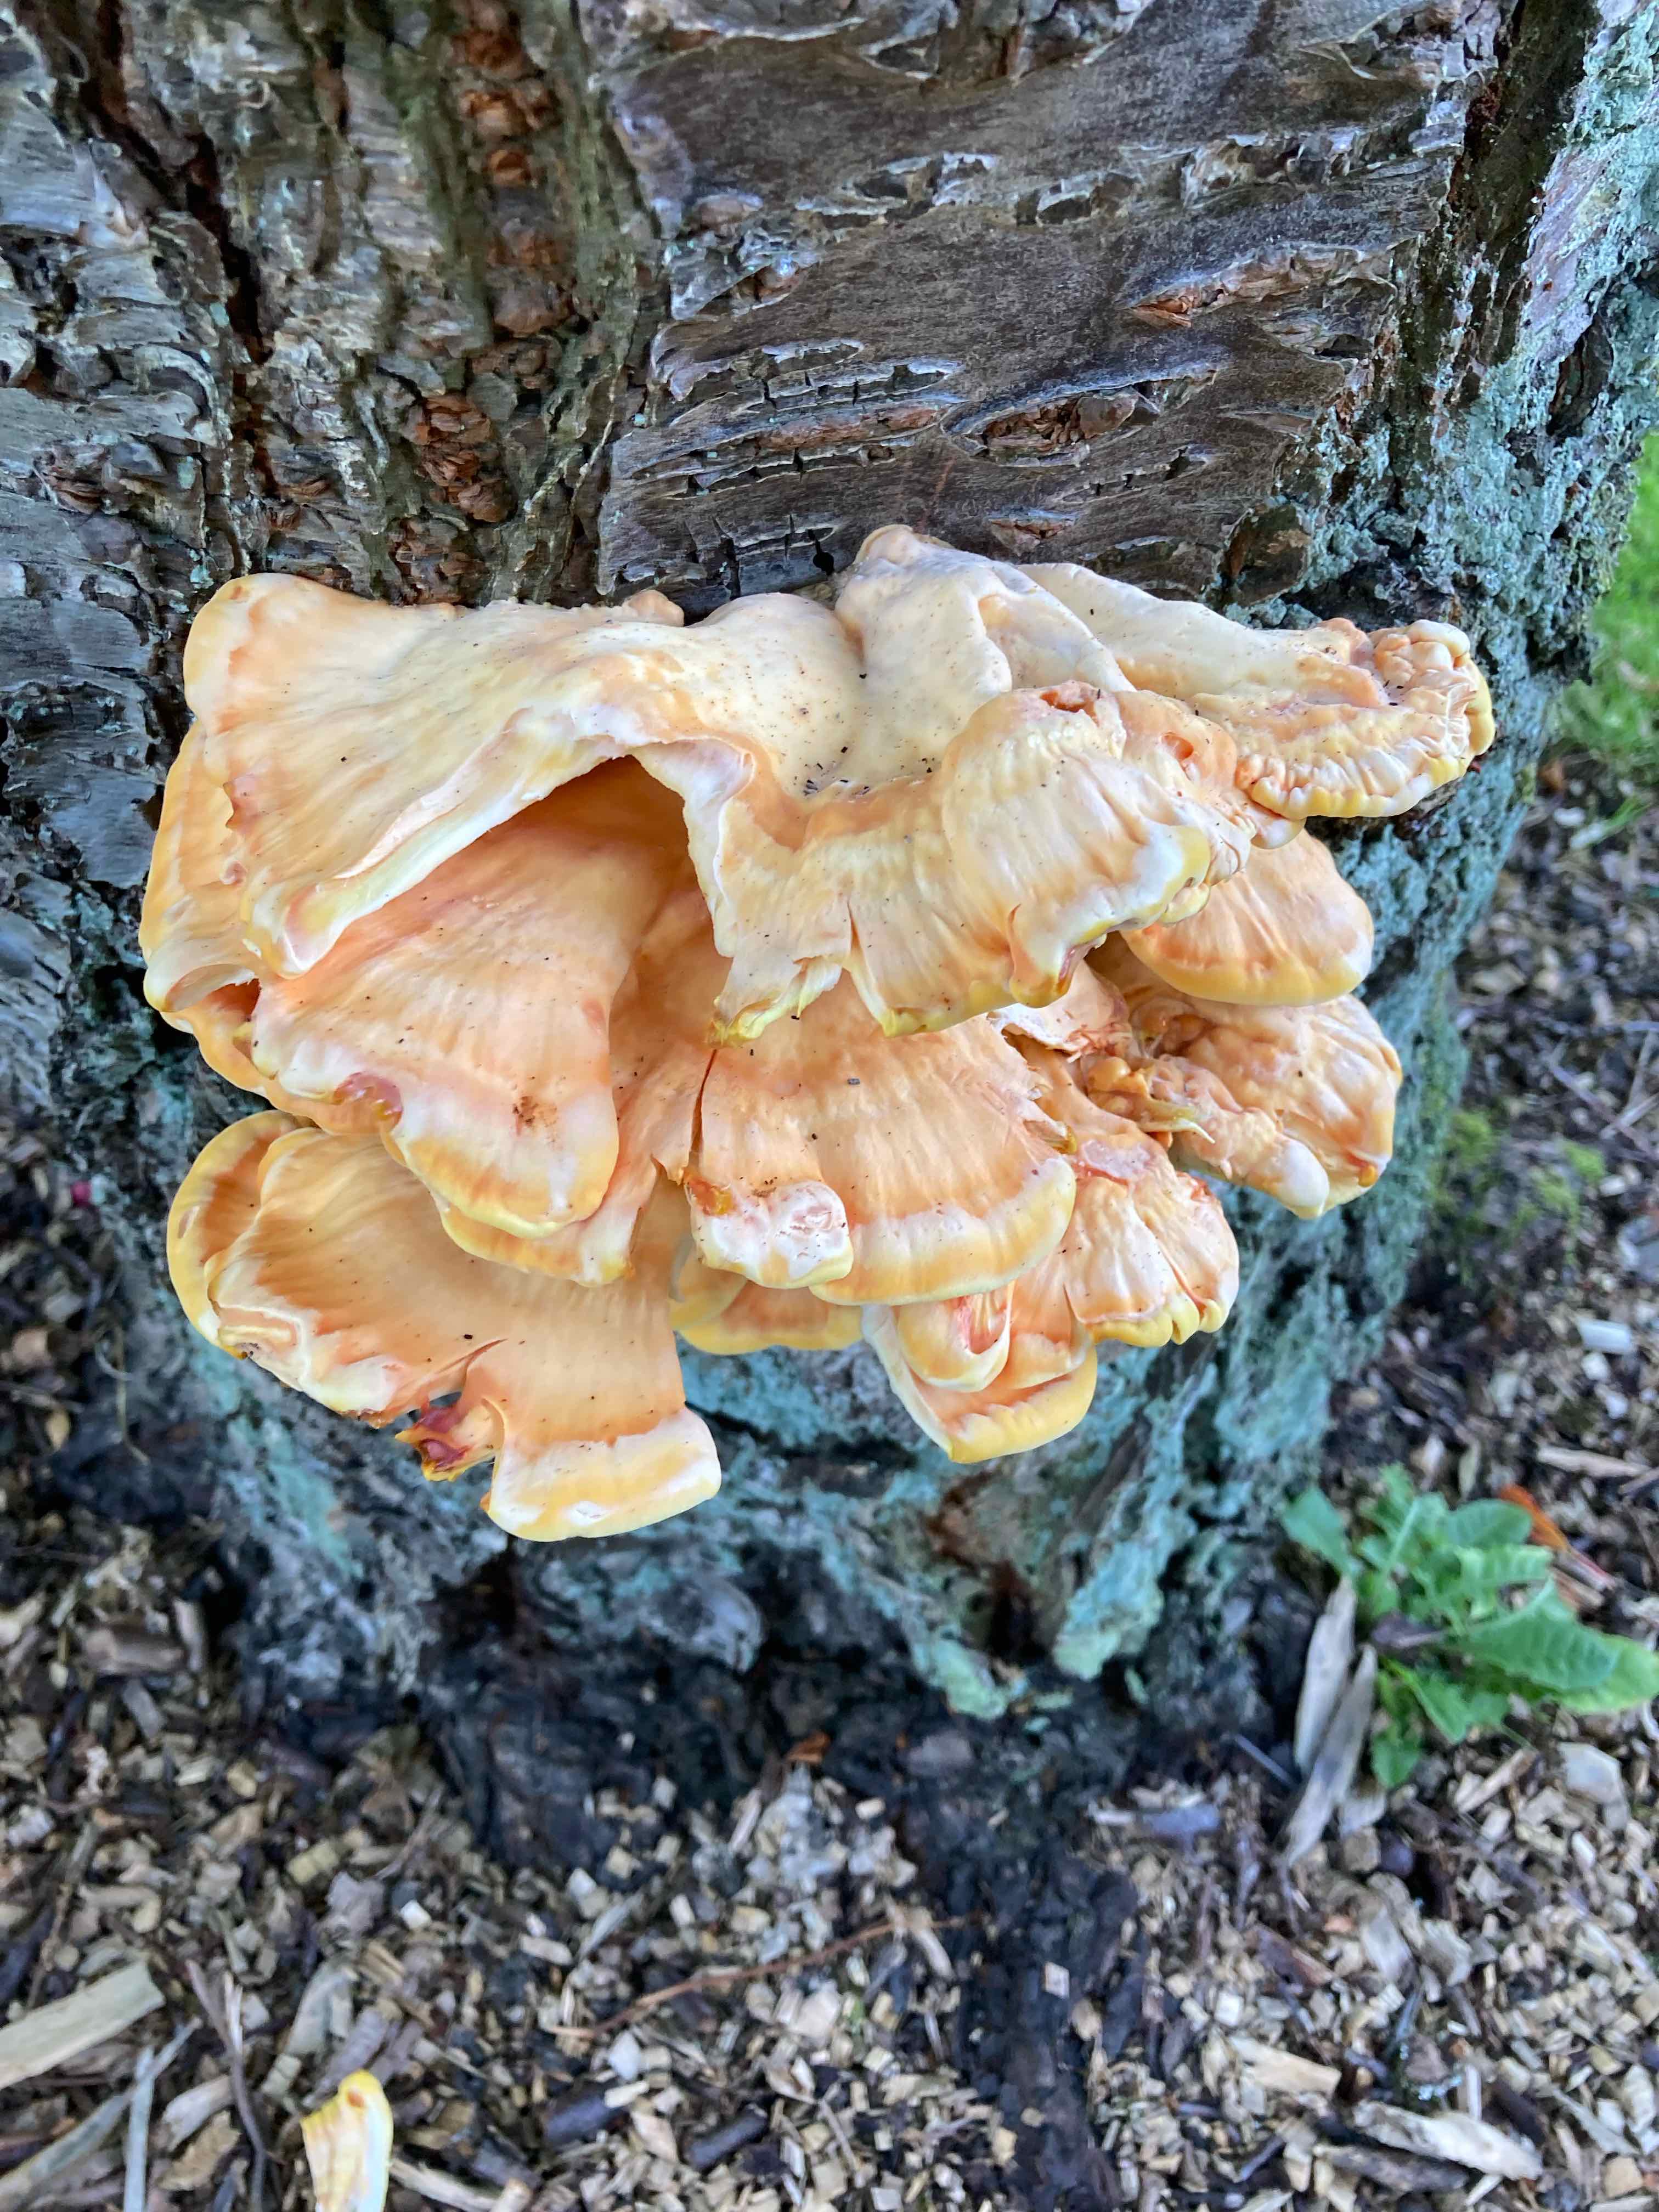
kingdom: Fungi
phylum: Basidiomycota
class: Agaricomycetes
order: Polyporales
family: Laetiporaceae
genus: Laetiporus
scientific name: Laetiporus sulphureus
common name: svovlporesvamp
